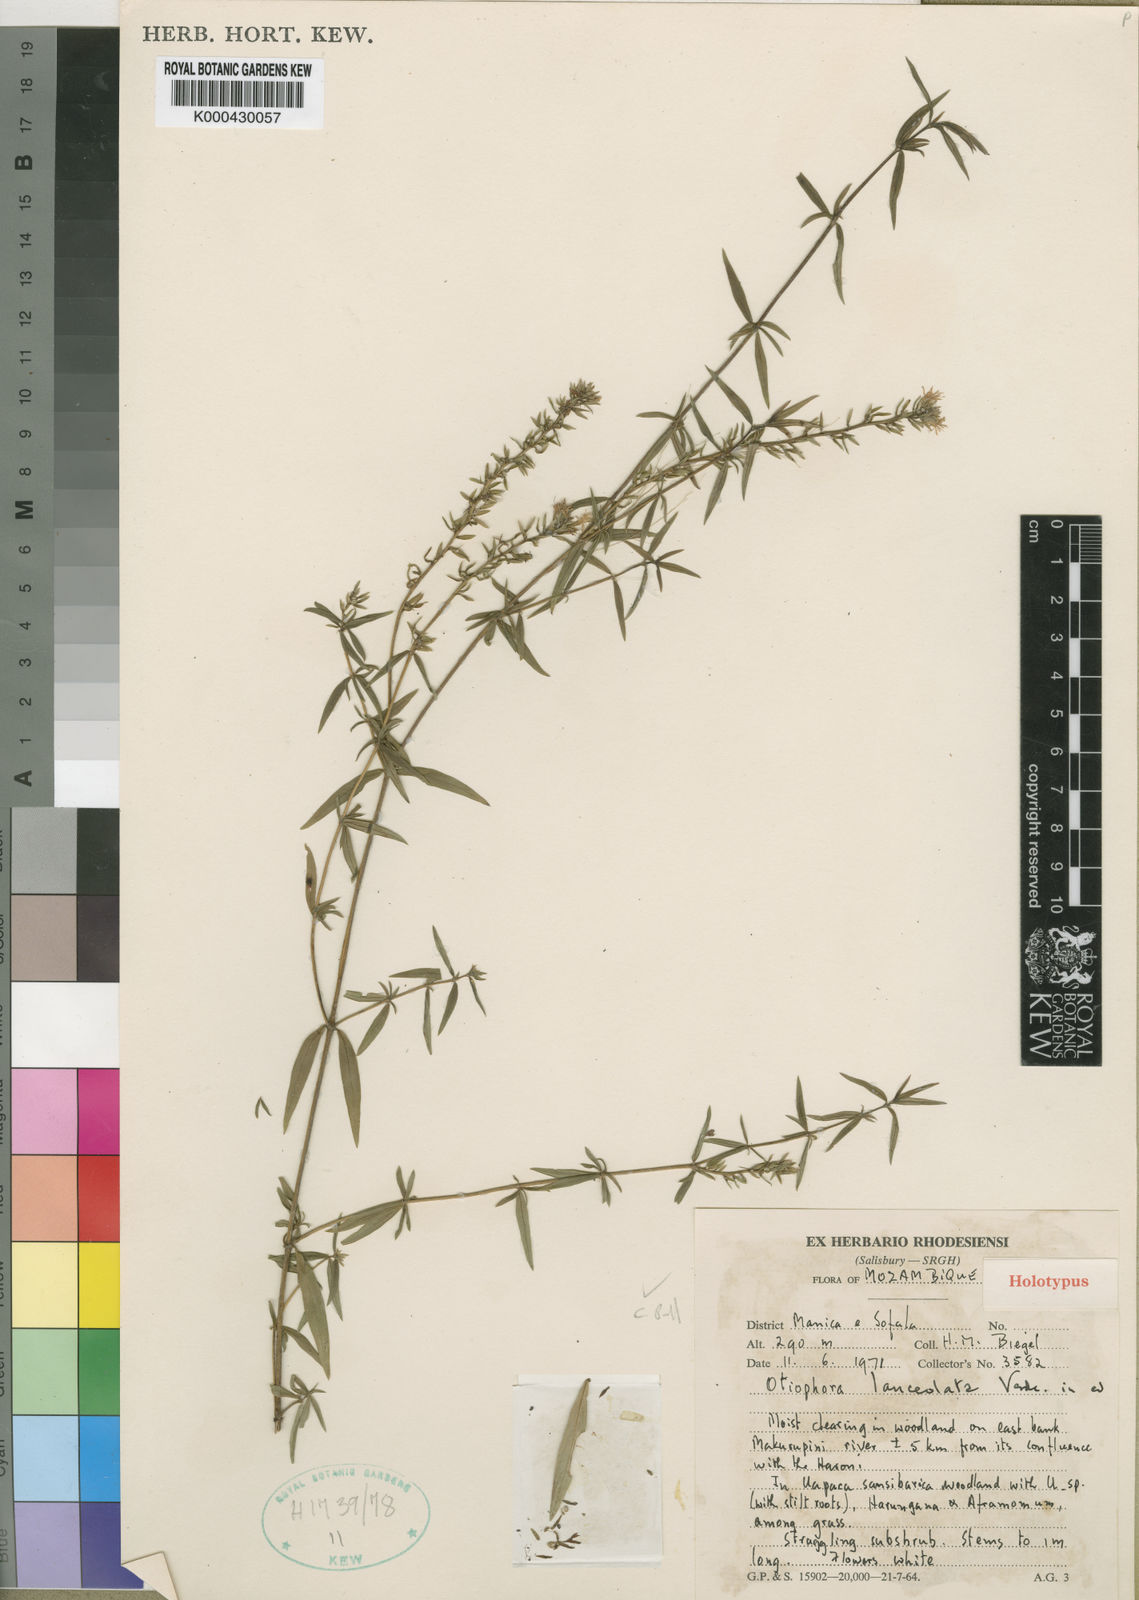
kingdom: Plantae
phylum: Tracheophyta
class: Magnoliopsida
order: Gentianales
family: Rubiaceae
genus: Otiophora
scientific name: Otiophora lanceolata
